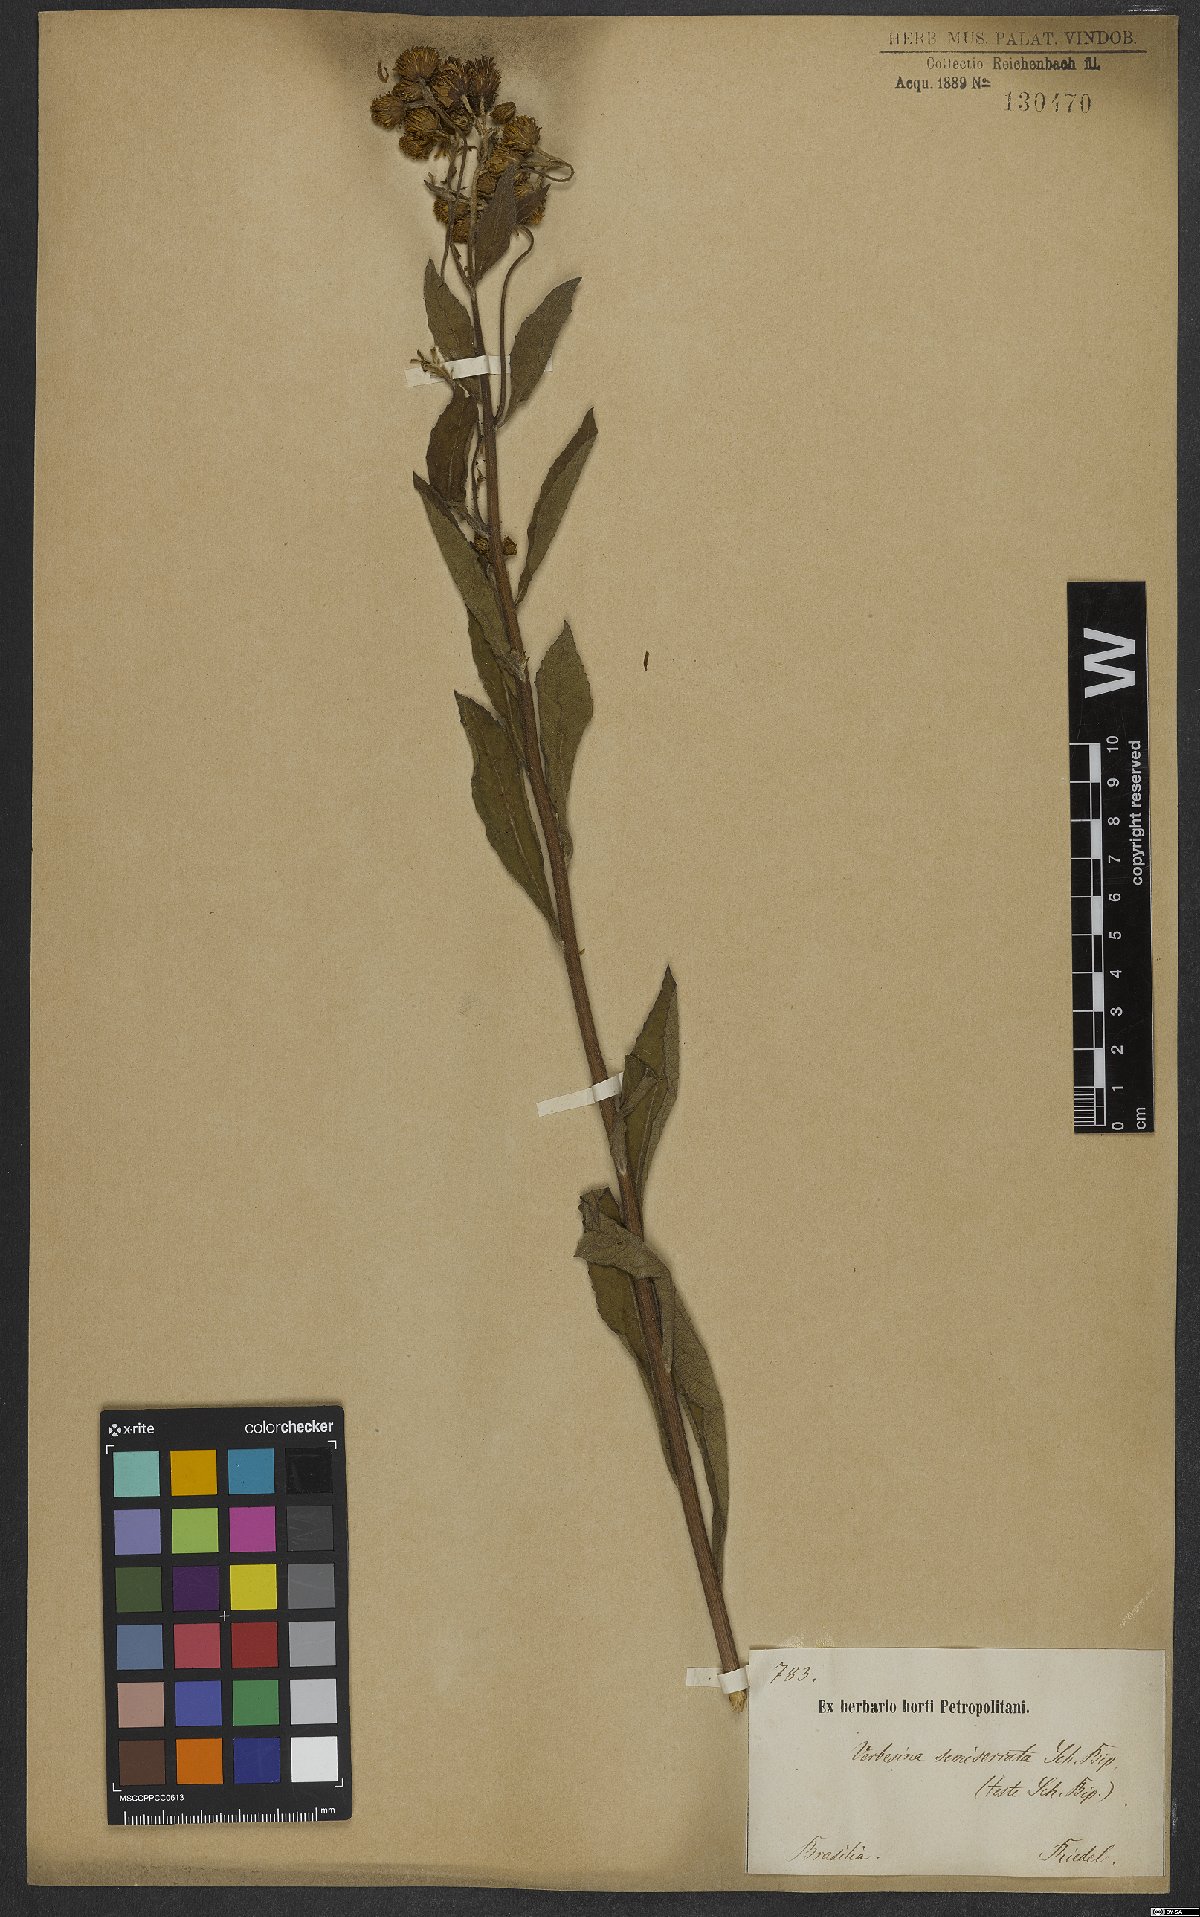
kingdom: Plantae
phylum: Tracheophyta
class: Magnoliopsida
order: Asterales
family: Asteraceae
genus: Verbesina
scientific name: Verbesina sordescens
